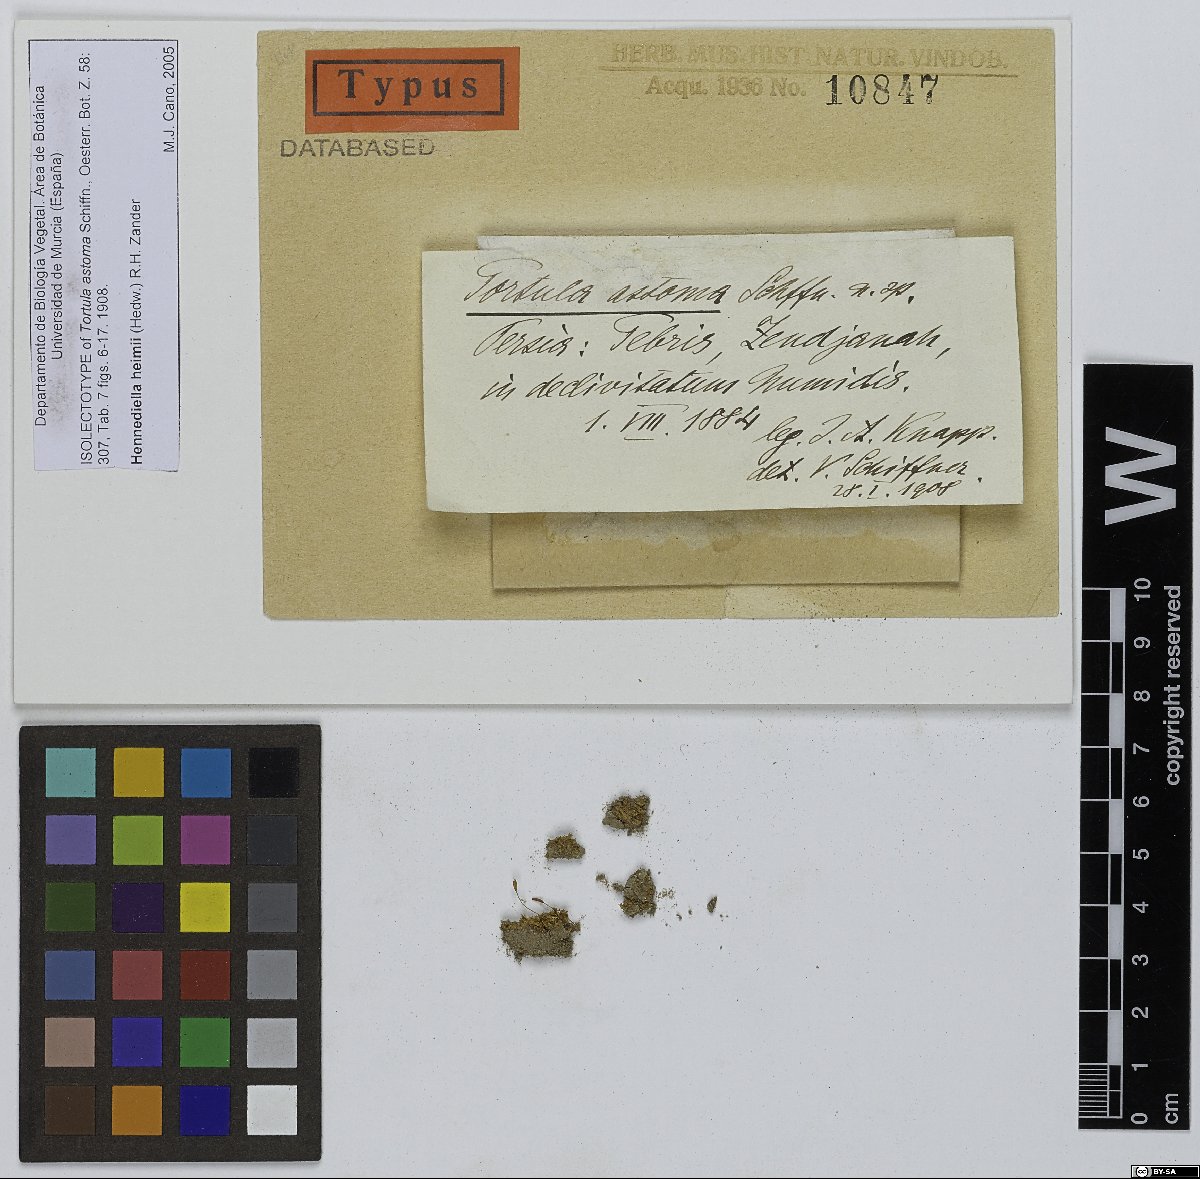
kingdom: Plantae
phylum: Bryophyta
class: Bryopsida
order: Pottiales
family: Pottiaceae
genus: Hennediella
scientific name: Hennediella heimii
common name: Heim's pottia
